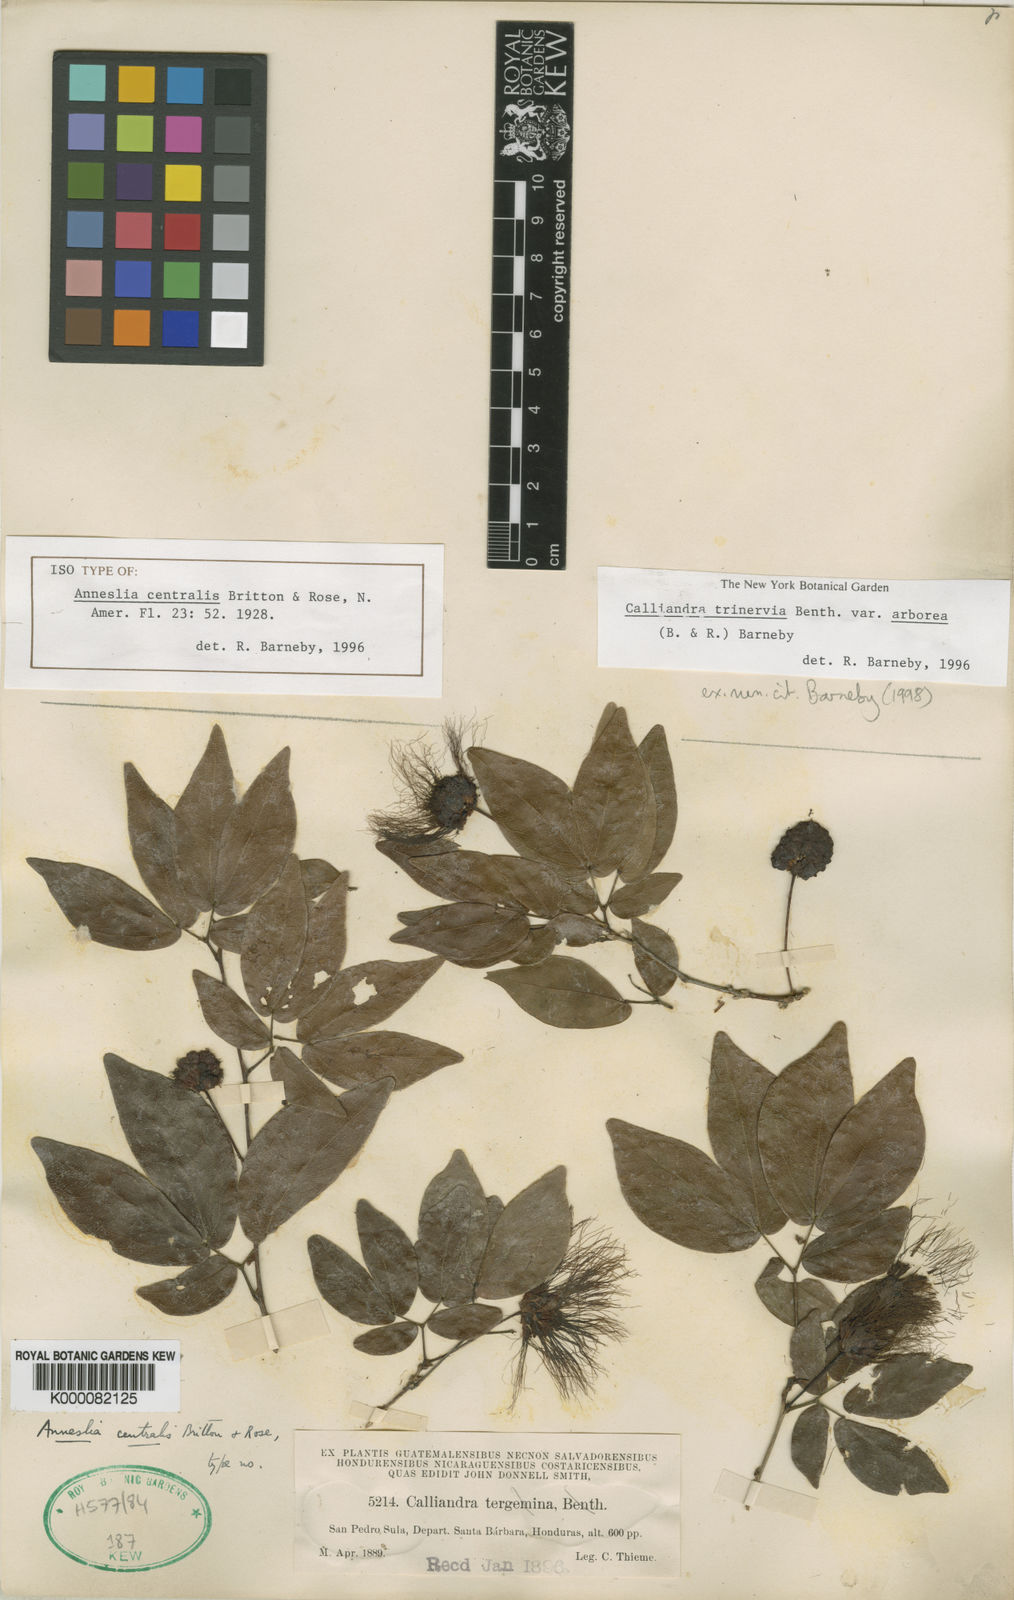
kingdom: Plantae
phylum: Tracheophyta
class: Magnoliopsida
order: Fabales
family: Fabaceae
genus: Calliandra
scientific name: Calliandra trinervia
